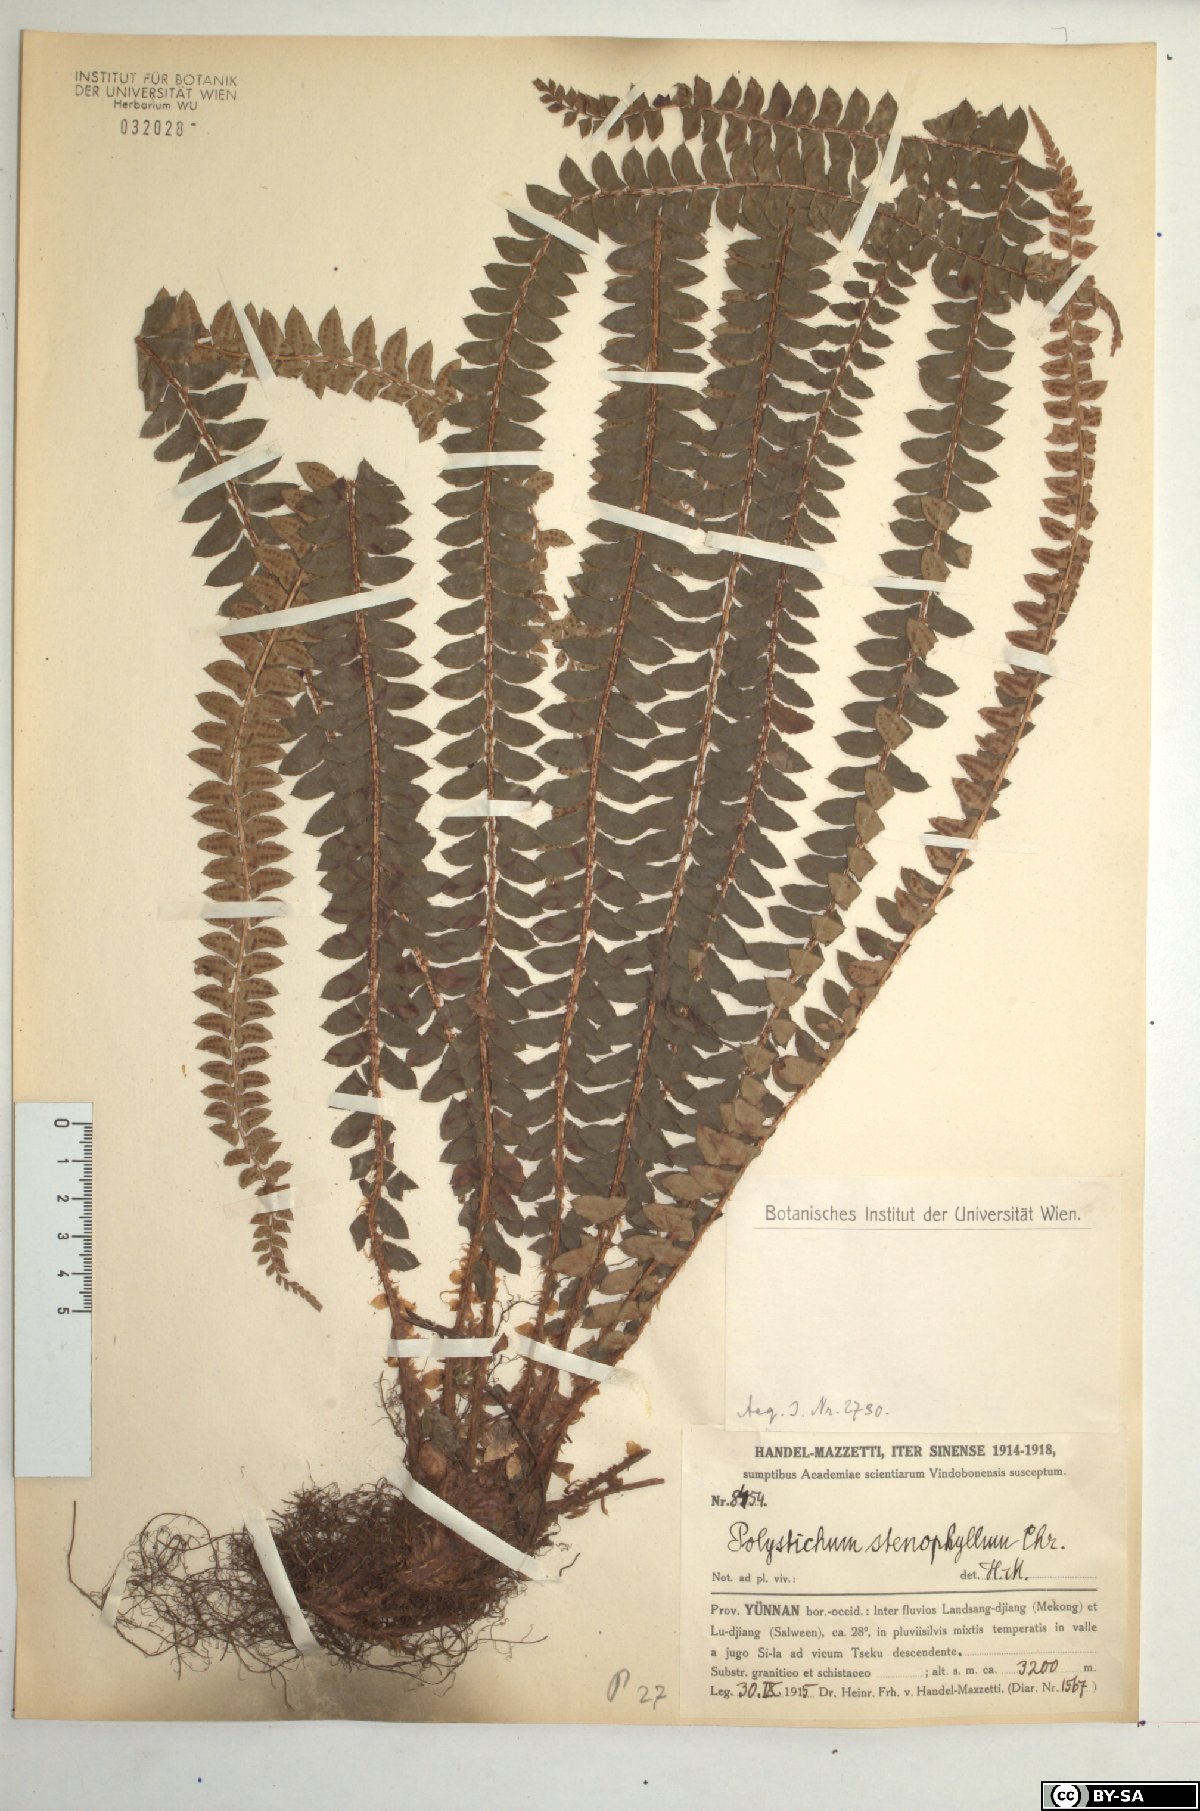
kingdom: Plantae
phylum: Tracheophyta
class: Polypodiopsida
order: Polypodiales
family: Dryopteridaceae
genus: Polystichum
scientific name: Polystichum levingei
